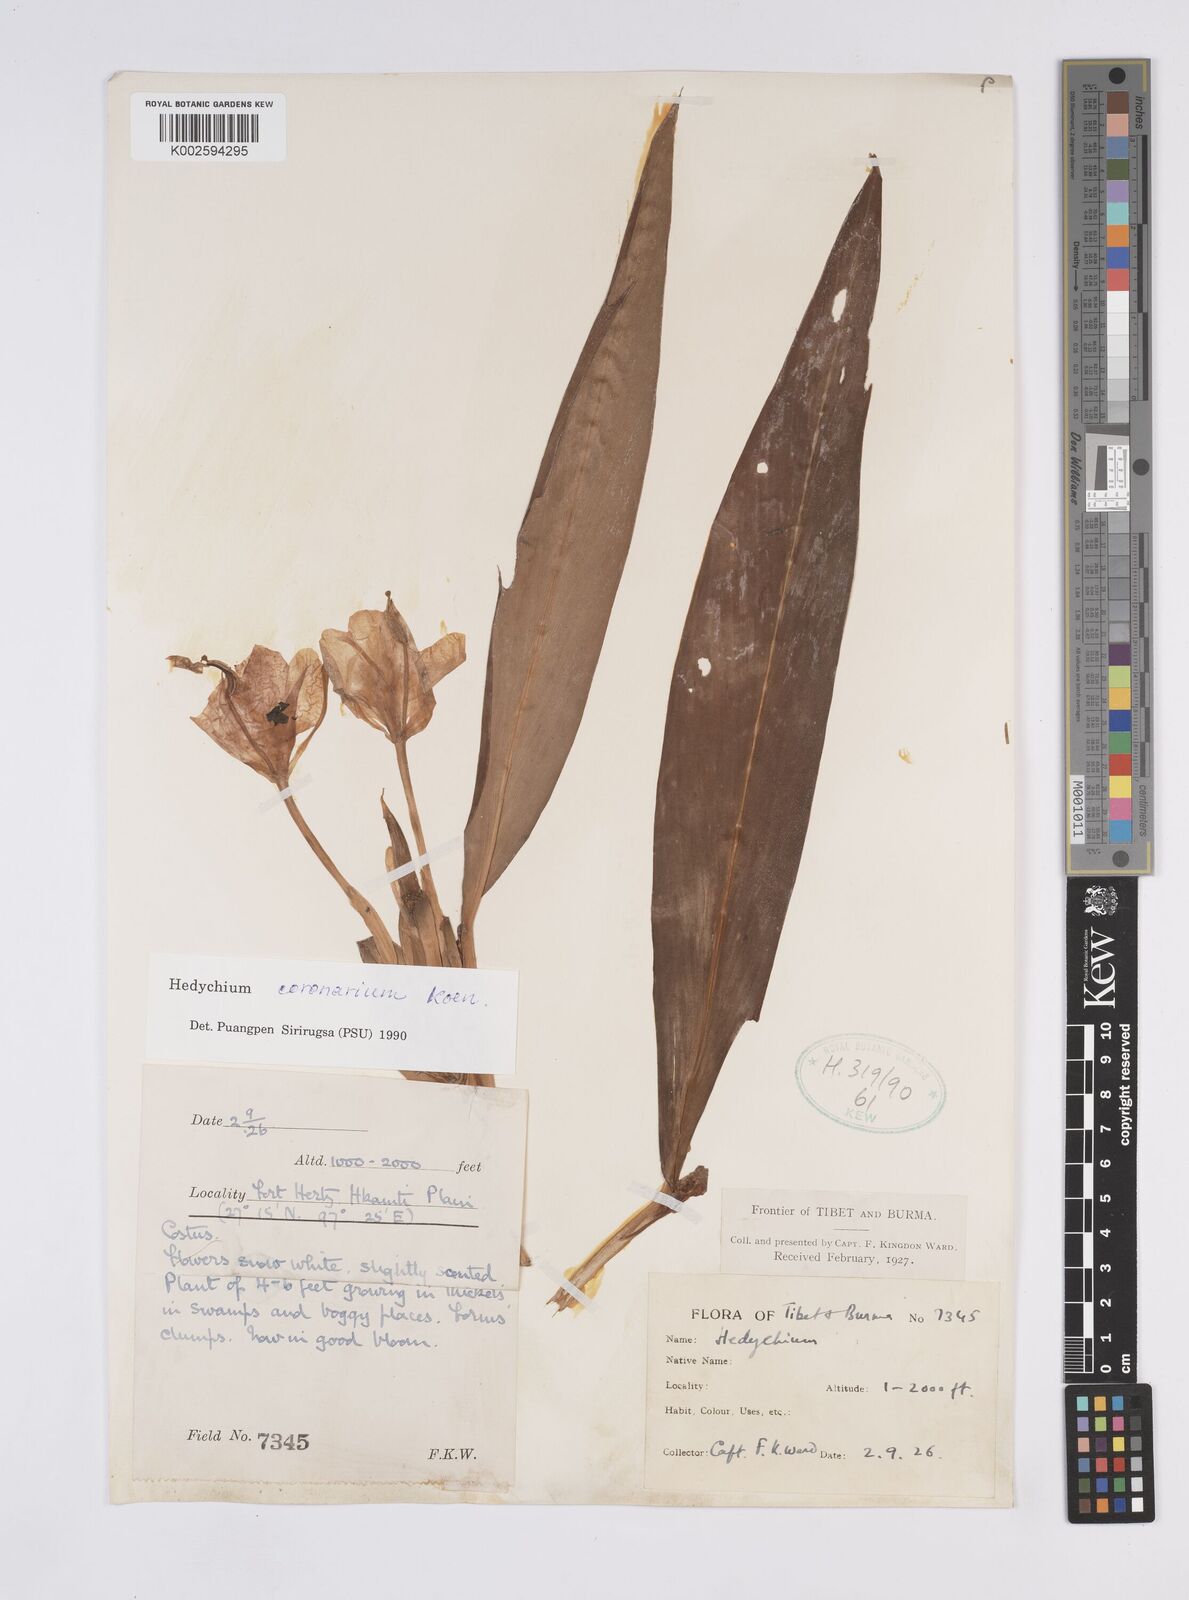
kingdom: Plantae
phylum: Tracheophyta
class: Liliopsida
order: Zingiberales
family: Zingiberaceae
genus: Hedychium
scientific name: Hedychium coronarium
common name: White garland-lily
